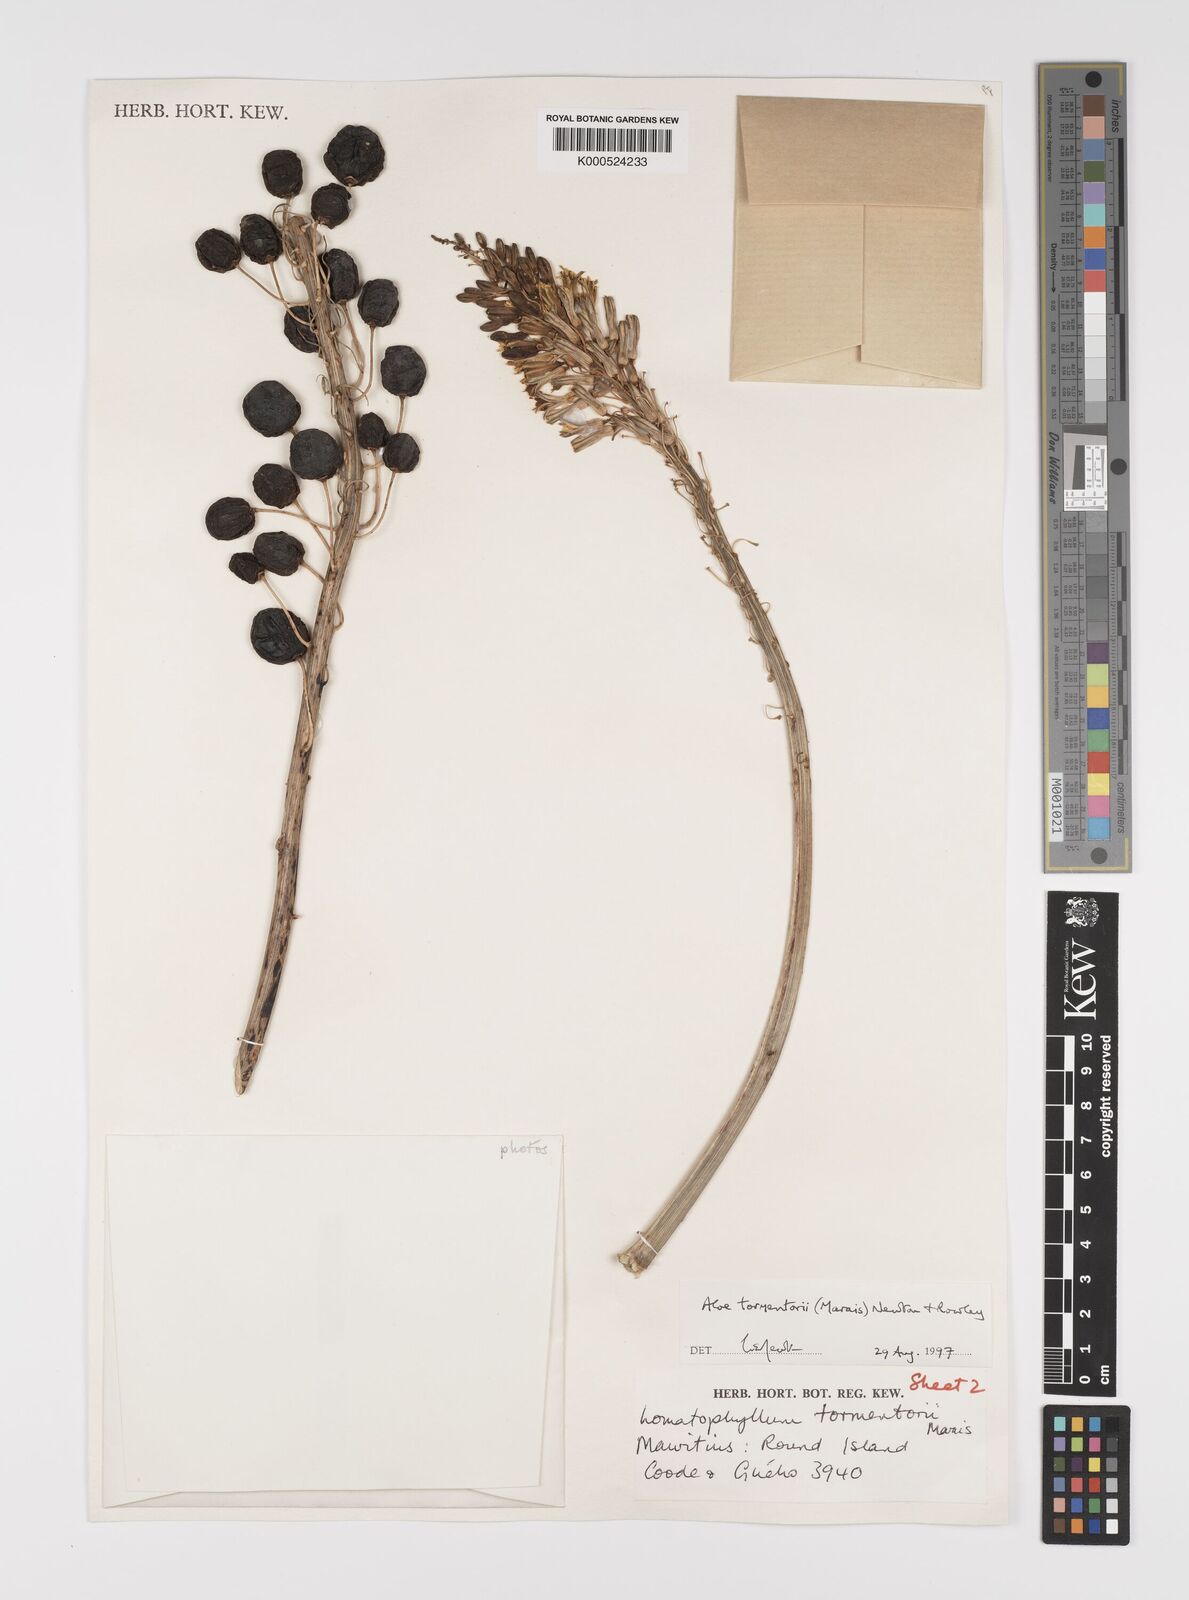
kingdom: Plantae
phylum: Tracheophyta
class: Liliopsida
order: Asparagales
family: Asphodelaceae
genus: Aloe
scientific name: Aloe tormentorii
